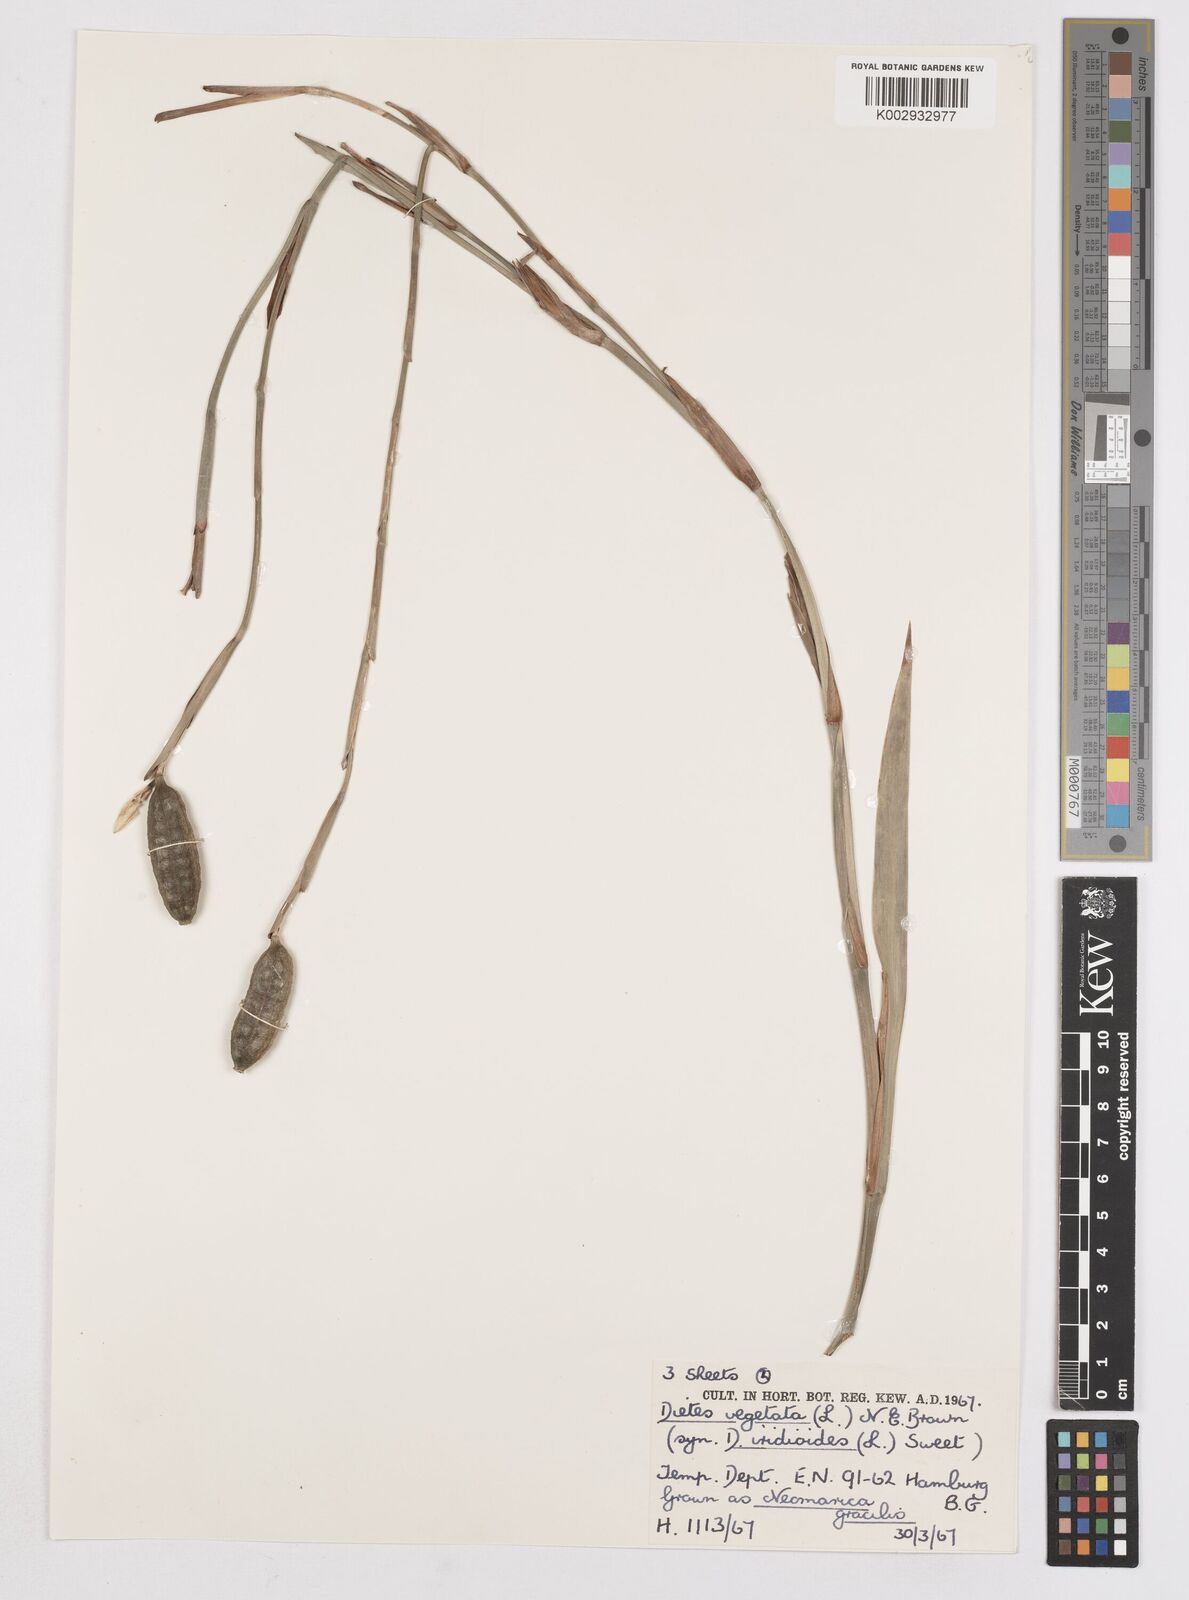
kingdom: Plantae
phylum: Tracheophyta
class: Liliopsida
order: Asparagales
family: Iridaceae
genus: Dietes
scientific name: Dietes iridioides
